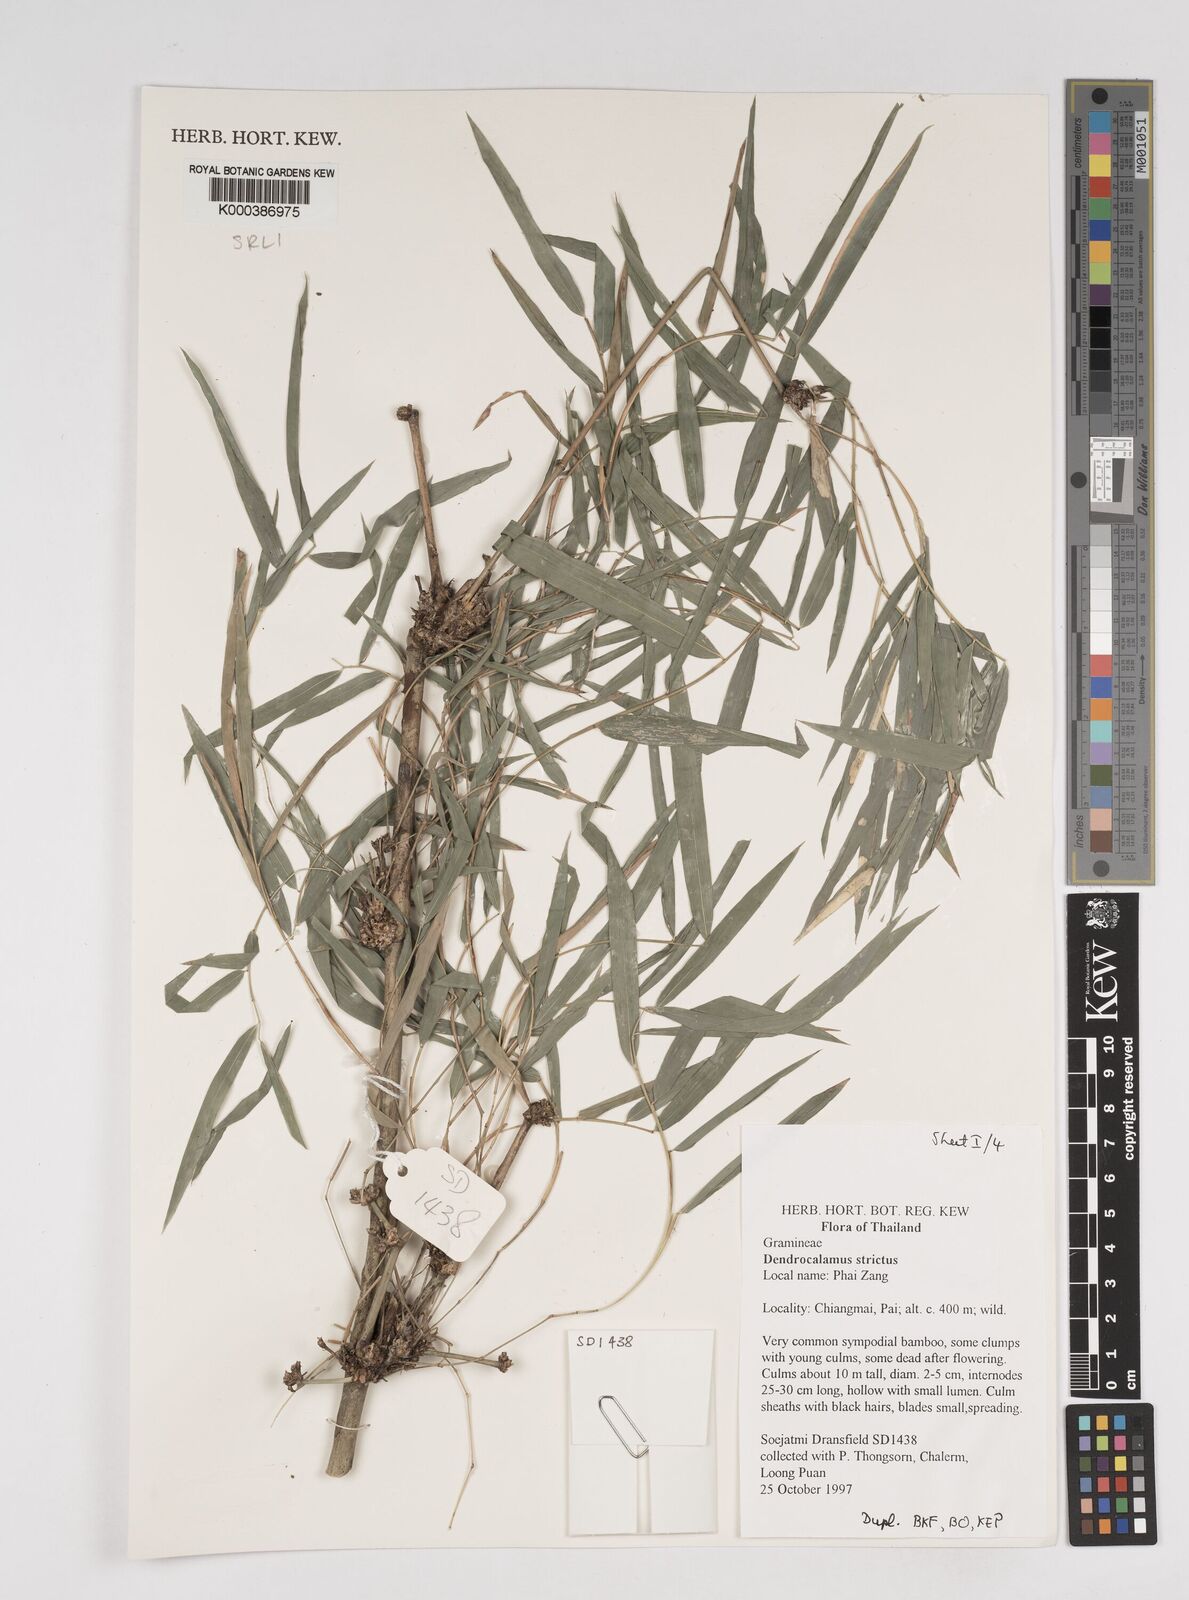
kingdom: Plantae
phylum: Tracheophyta
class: Liliopsida
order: Poales
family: Poaceae
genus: Dendrocalamus
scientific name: Dendrocalamus membranaceus
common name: White bamboo
